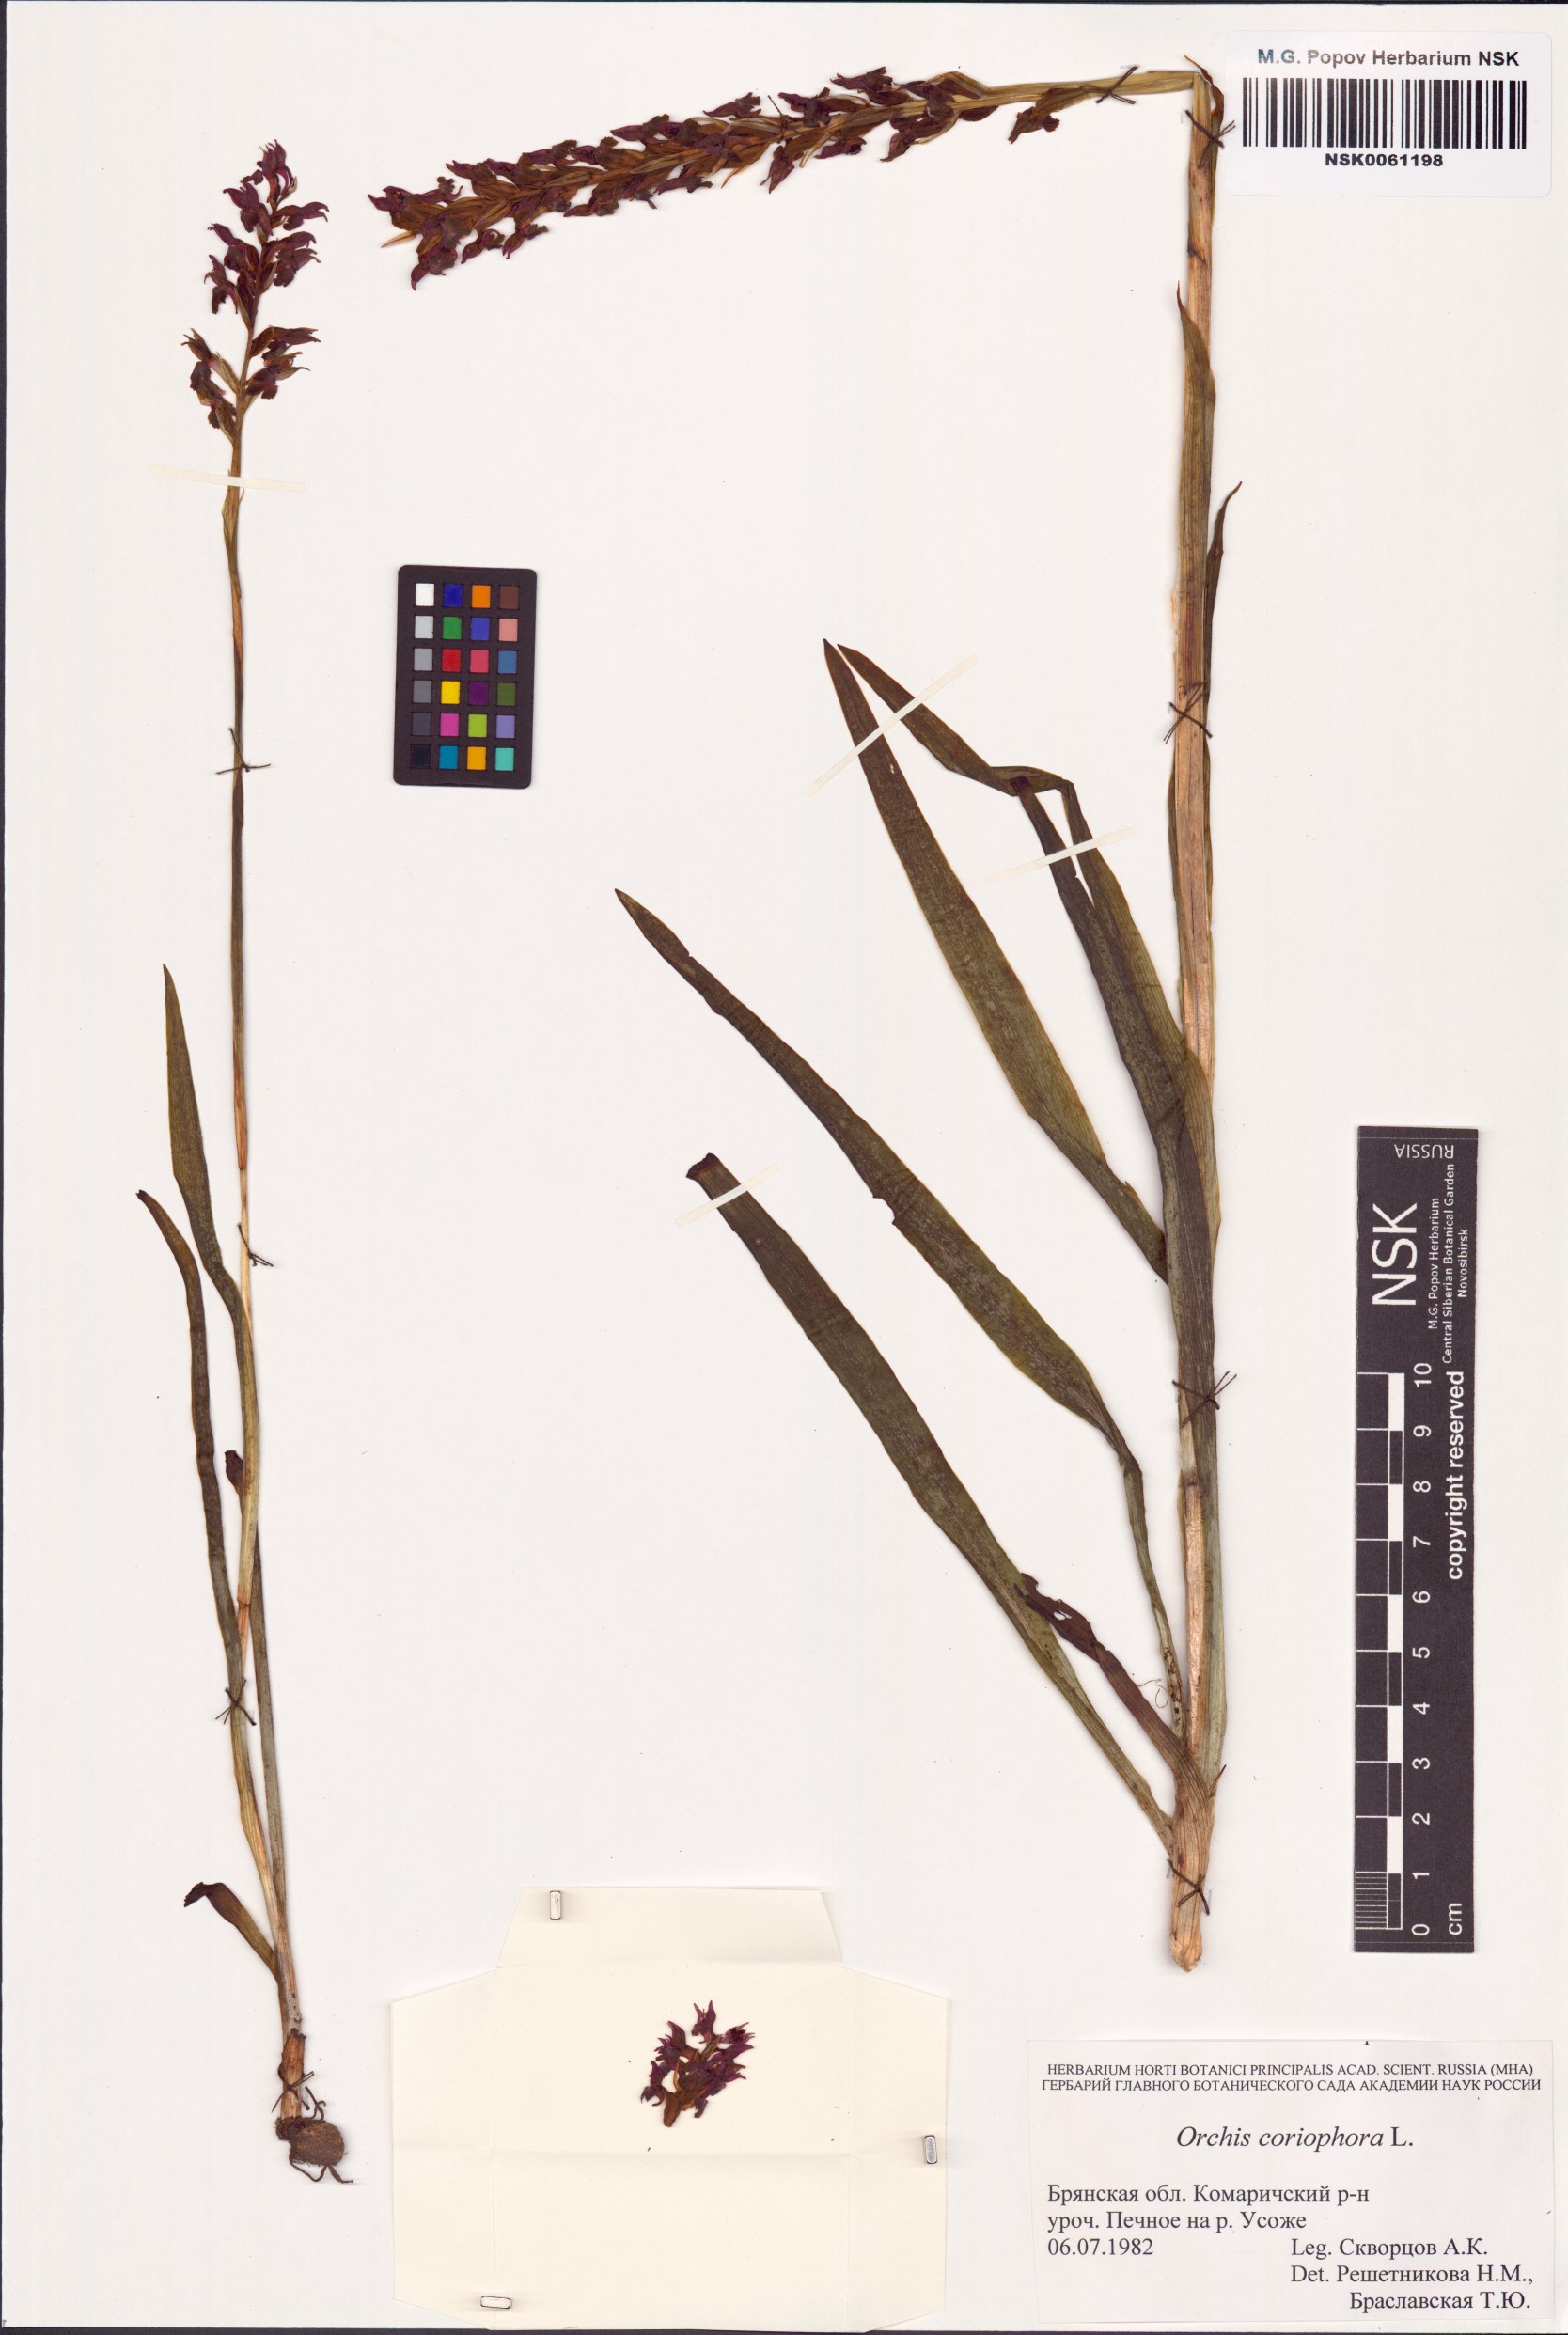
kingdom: Plantae
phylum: Tracheophyta
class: Liliopsida
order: Asparagales
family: Orchidaceae
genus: Anacamptis
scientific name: Anacamptis coriophora
